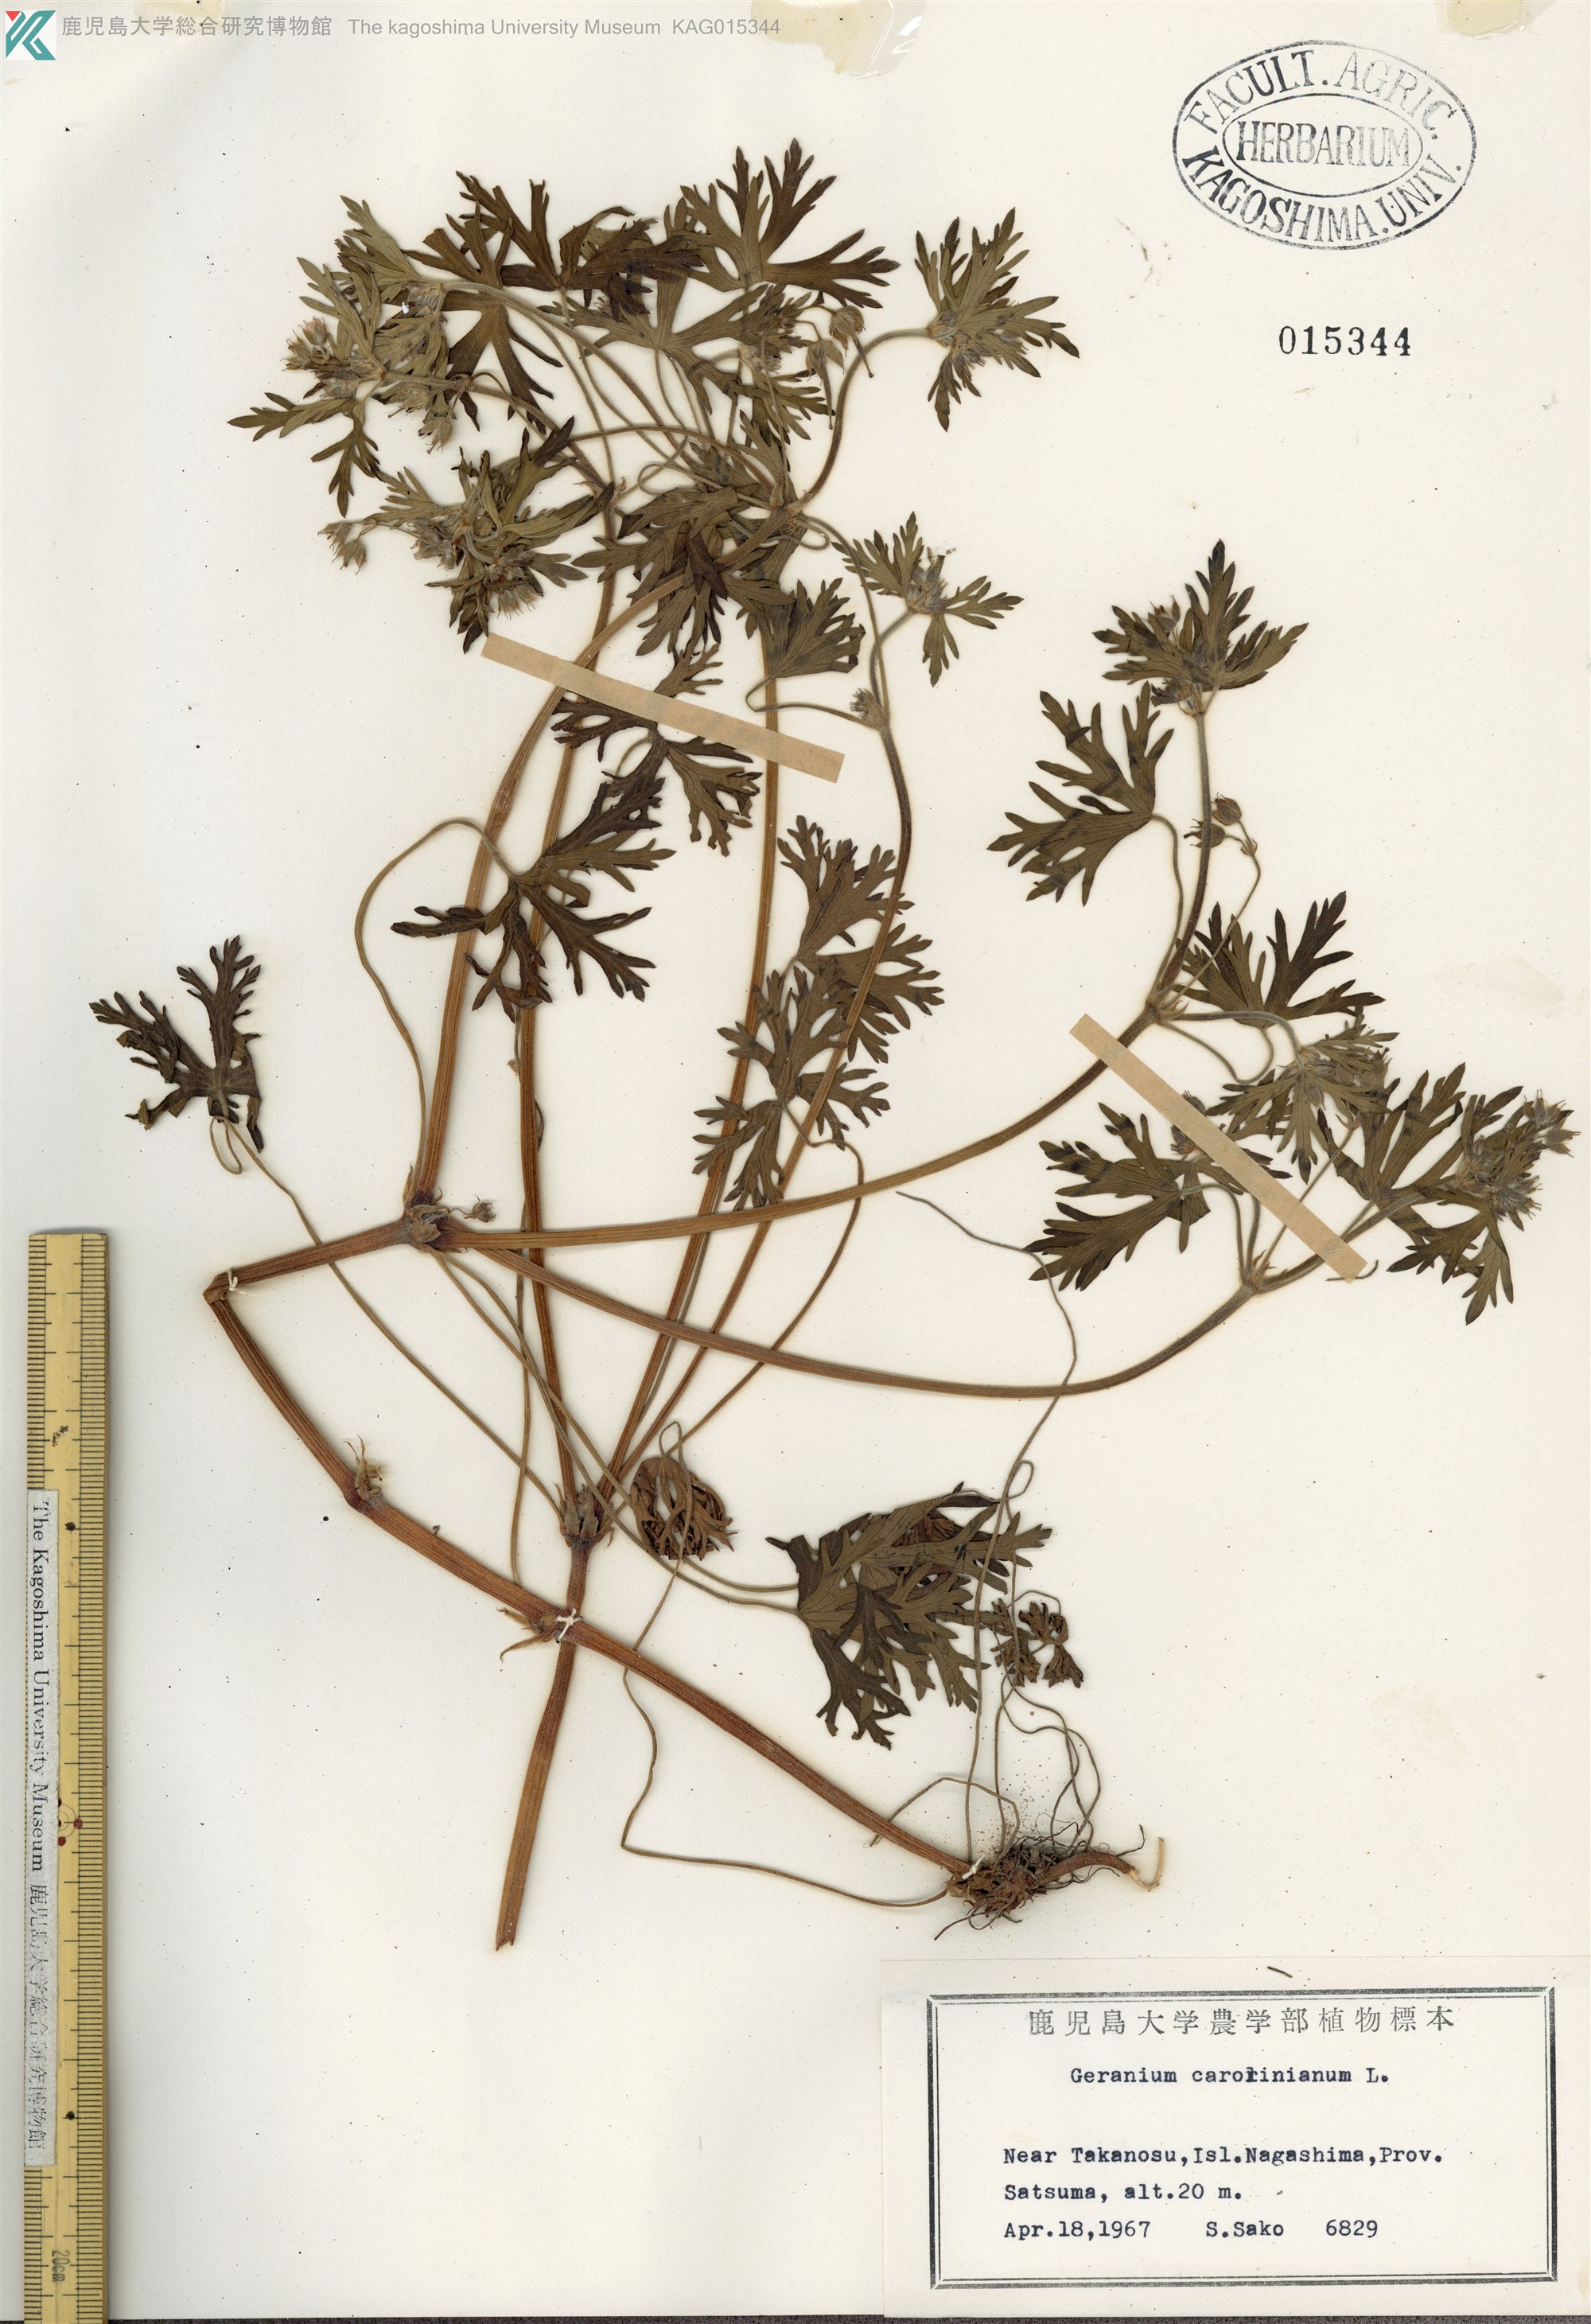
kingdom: Plantae
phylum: Tracheophyta
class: Magnoliopsida
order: Geraniales
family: Geraniaceae
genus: Geranium
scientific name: Geranium carolinianum
